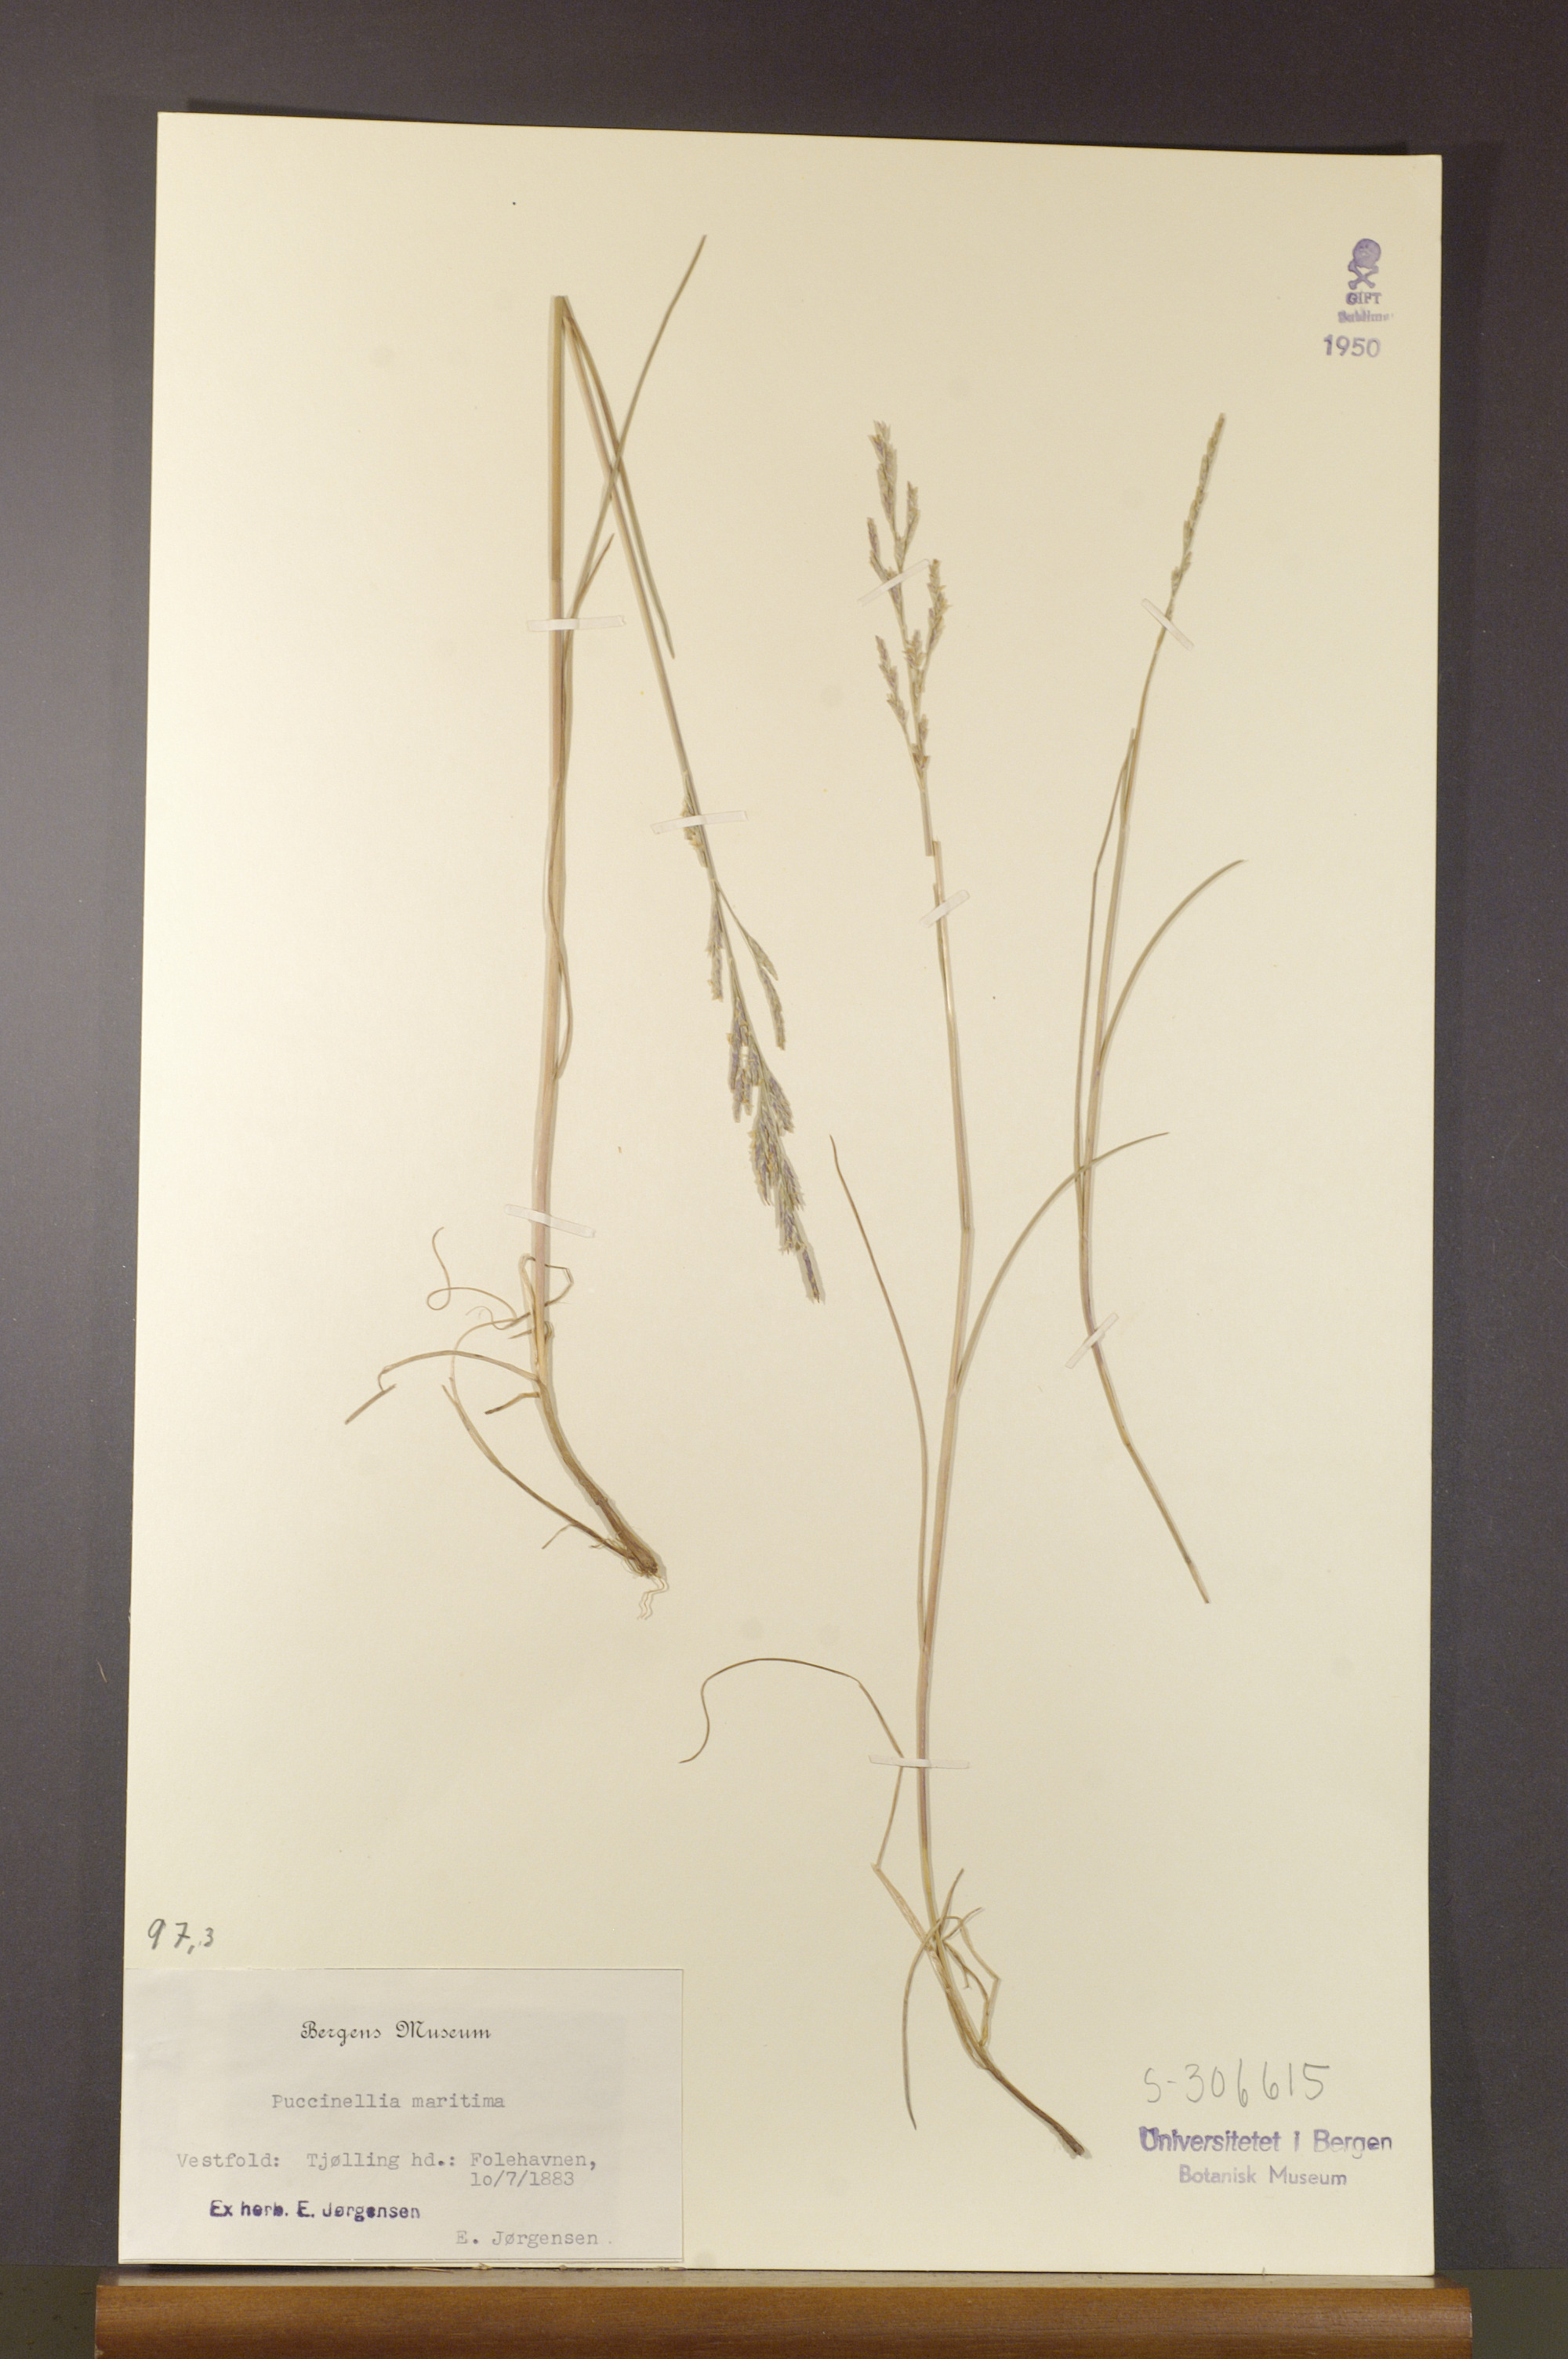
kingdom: Plantae
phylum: Tracheophyta
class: Liliopsida
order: Poales
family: Poaceae
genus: Puccinellia
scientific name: Puccinellia maritima
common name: Common saltmarsh grass
